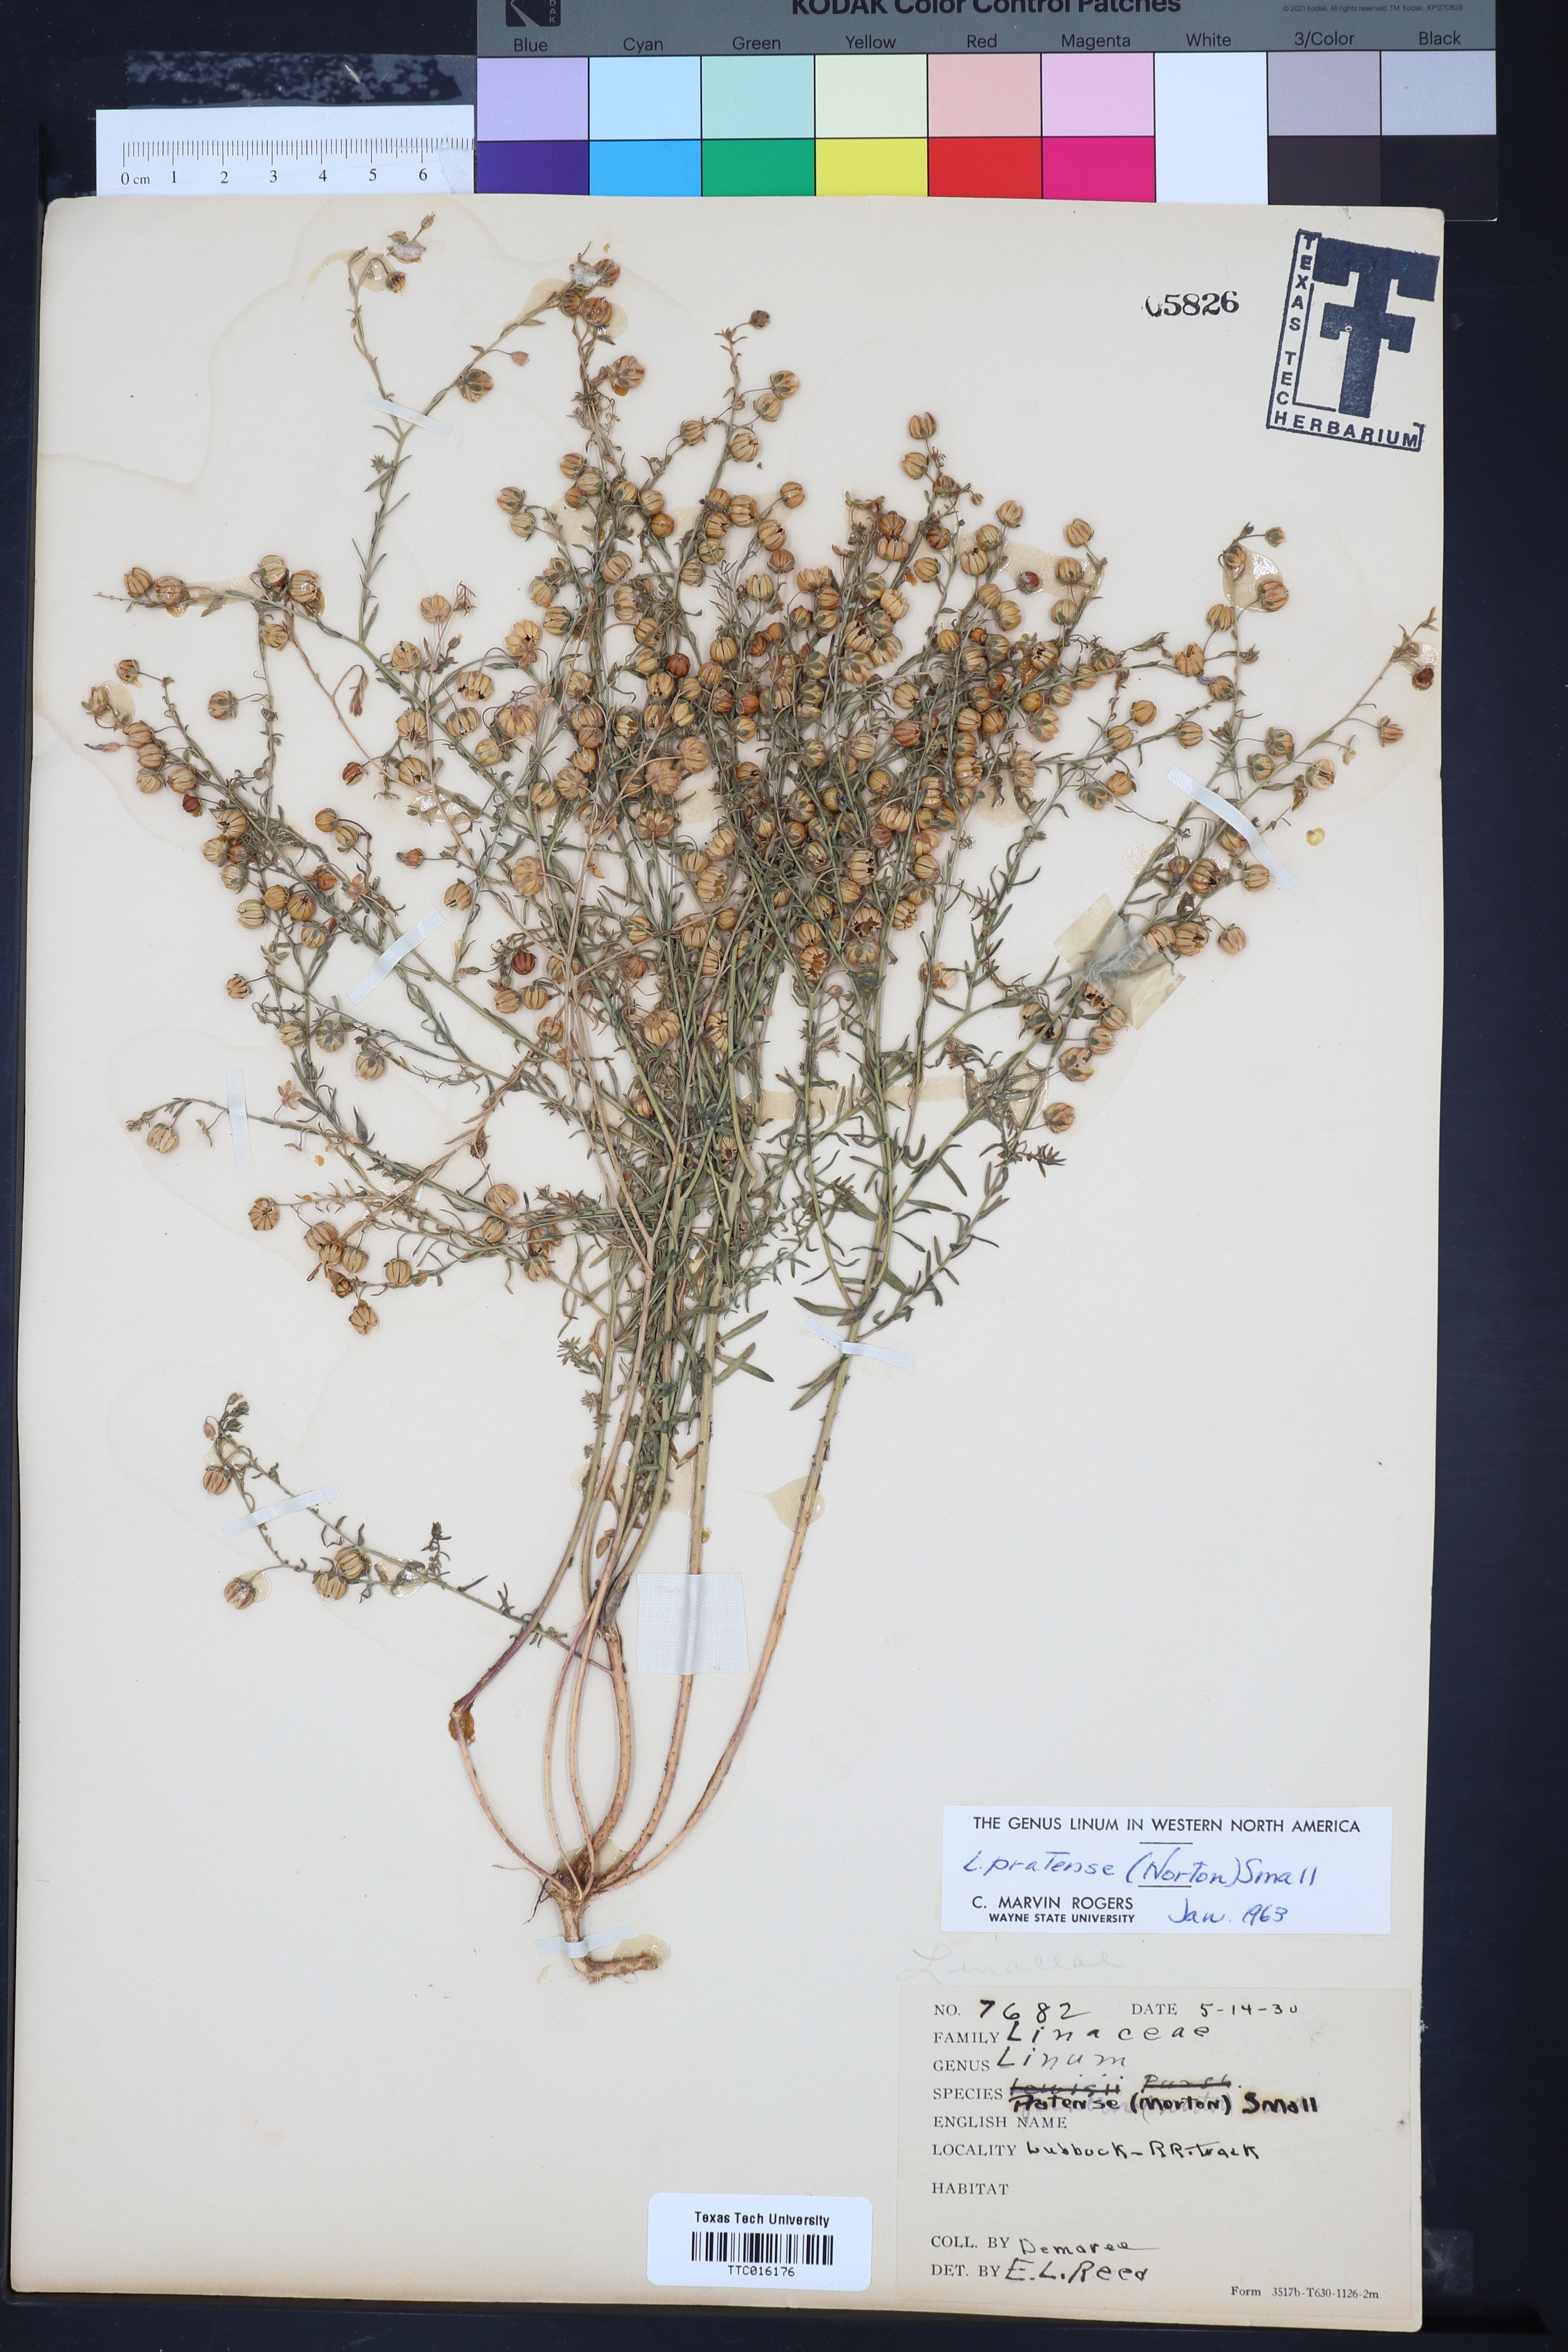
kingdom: Plantae
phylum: Tracheophyta
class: Magnoliopsida
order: Malpighiales
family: Linaceae
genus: Linum
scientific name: Linum pratense
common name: Norton's flax
